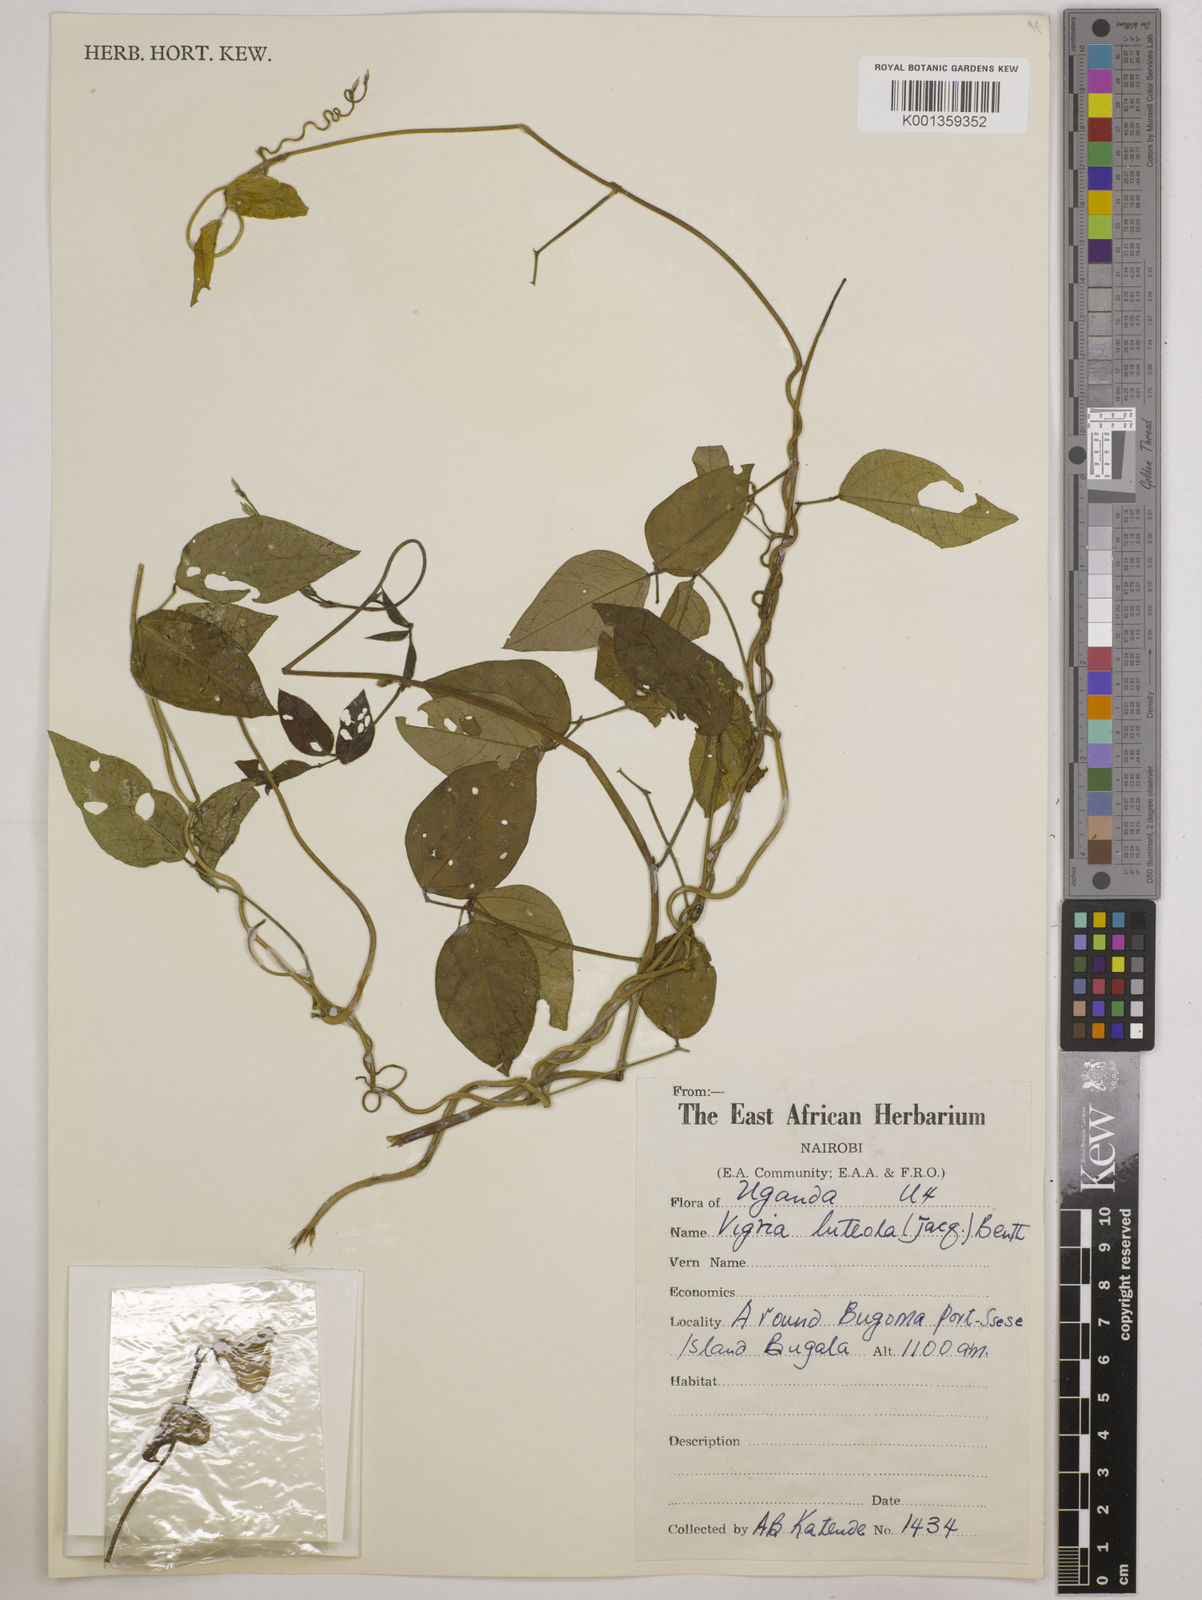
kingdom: Plantae
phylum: Tracheophyta
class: Magnoliopsida
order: Fabales
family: Fabaceae
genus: Vigna
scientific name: Vigna luteola
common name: Hairypod cowpea
